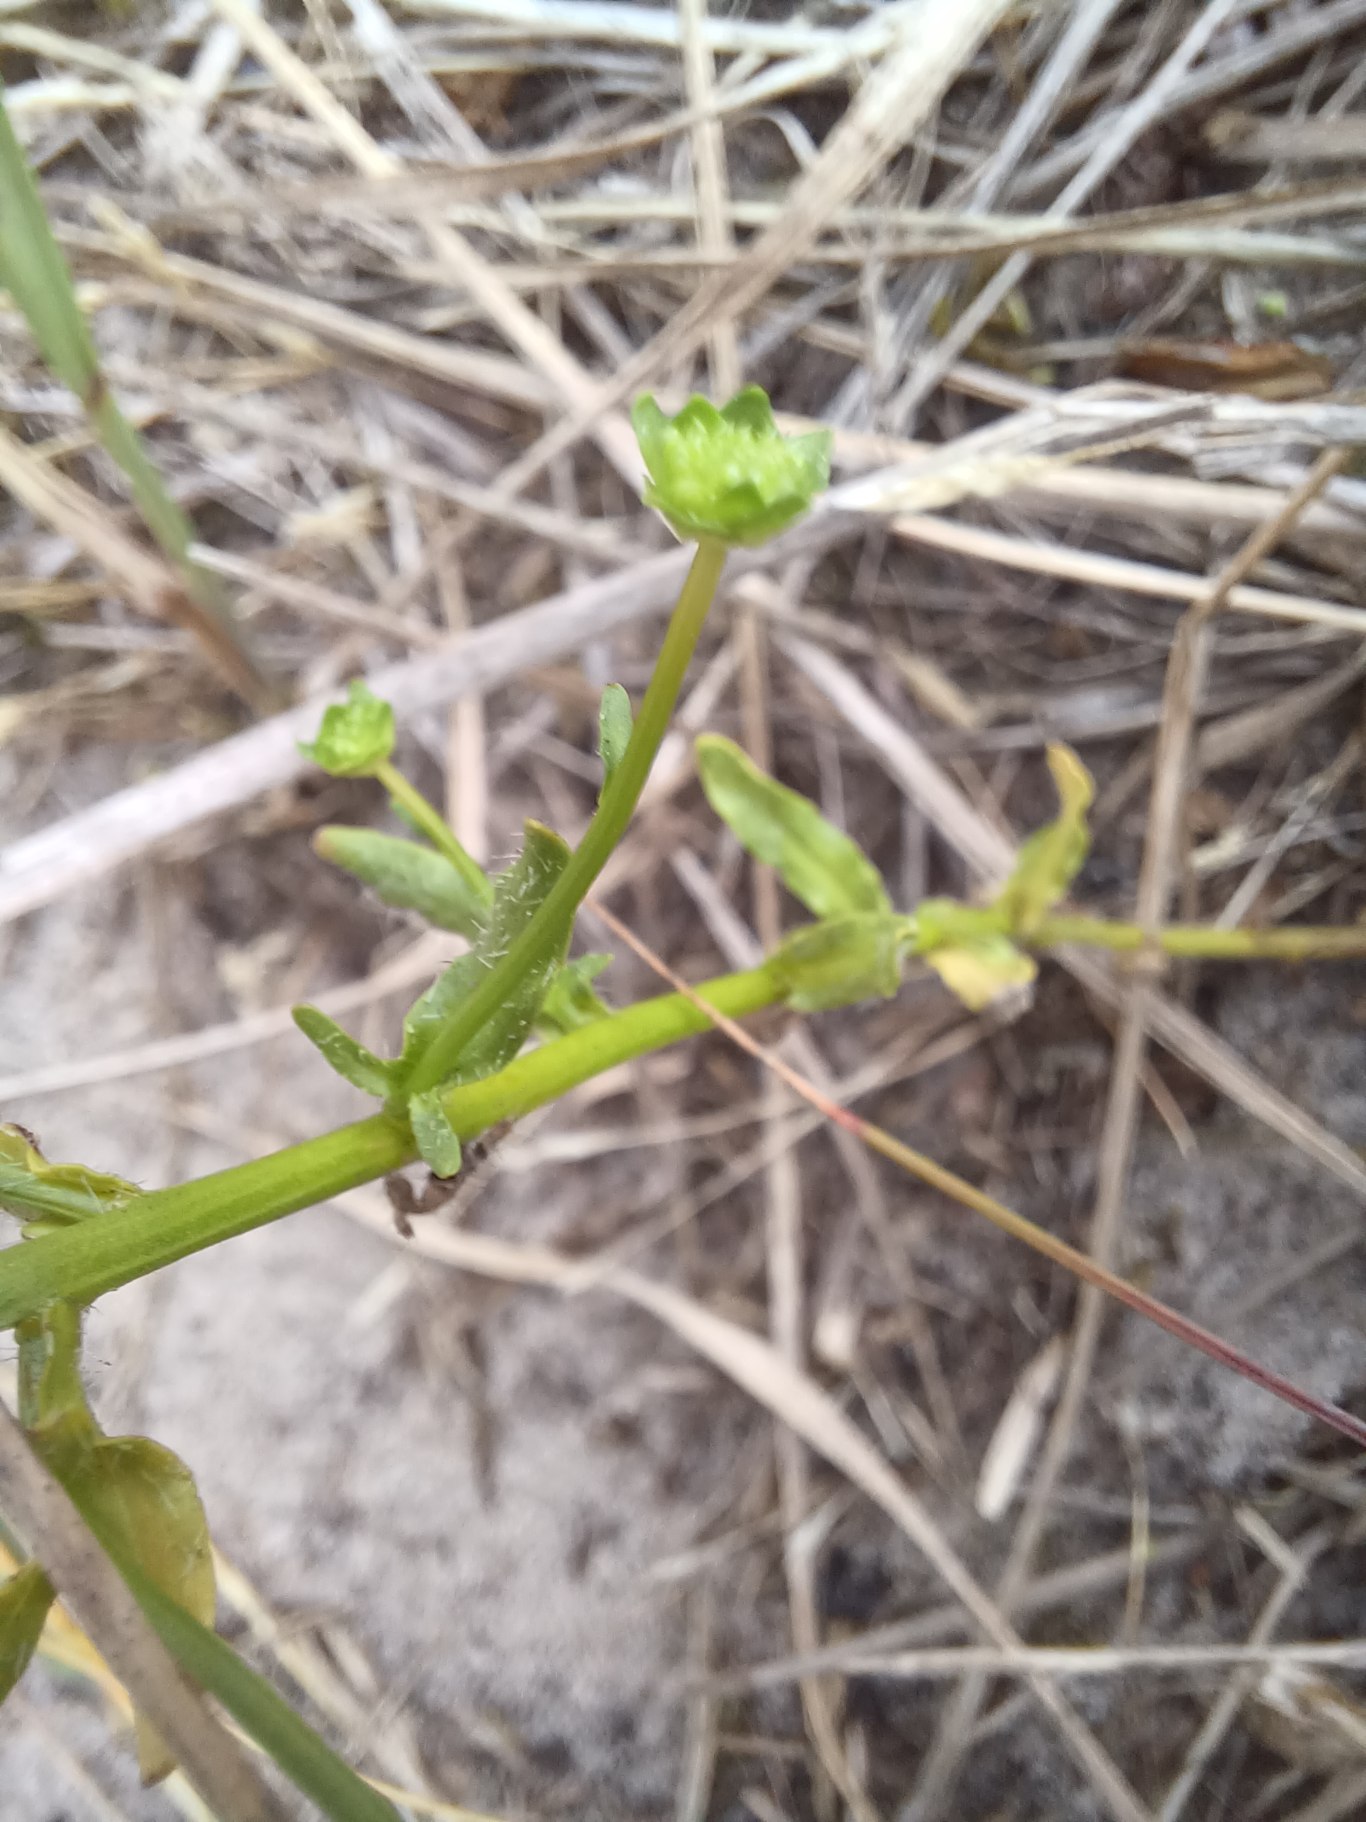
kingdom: Plantae
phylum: Tracheophyta
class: Magnoliopsida
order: Asterales
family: Campanulaceae
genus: Jasione
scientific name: Jasione montana
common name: Blåmunke
